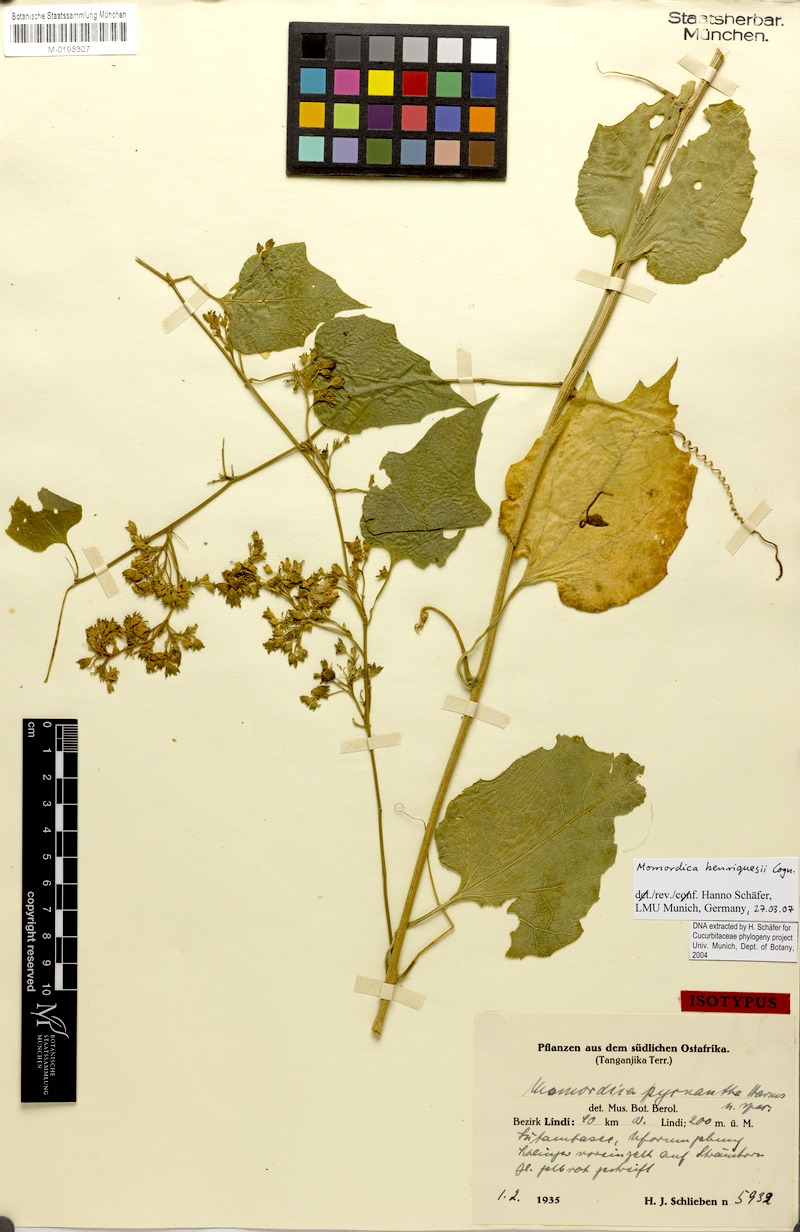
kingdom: Plantae
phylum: Tracheophyta
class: Magnoliopsida
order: Cucurbitales
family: Cucurbitaceae
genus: Momordica
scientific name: Momordica henriquesii
